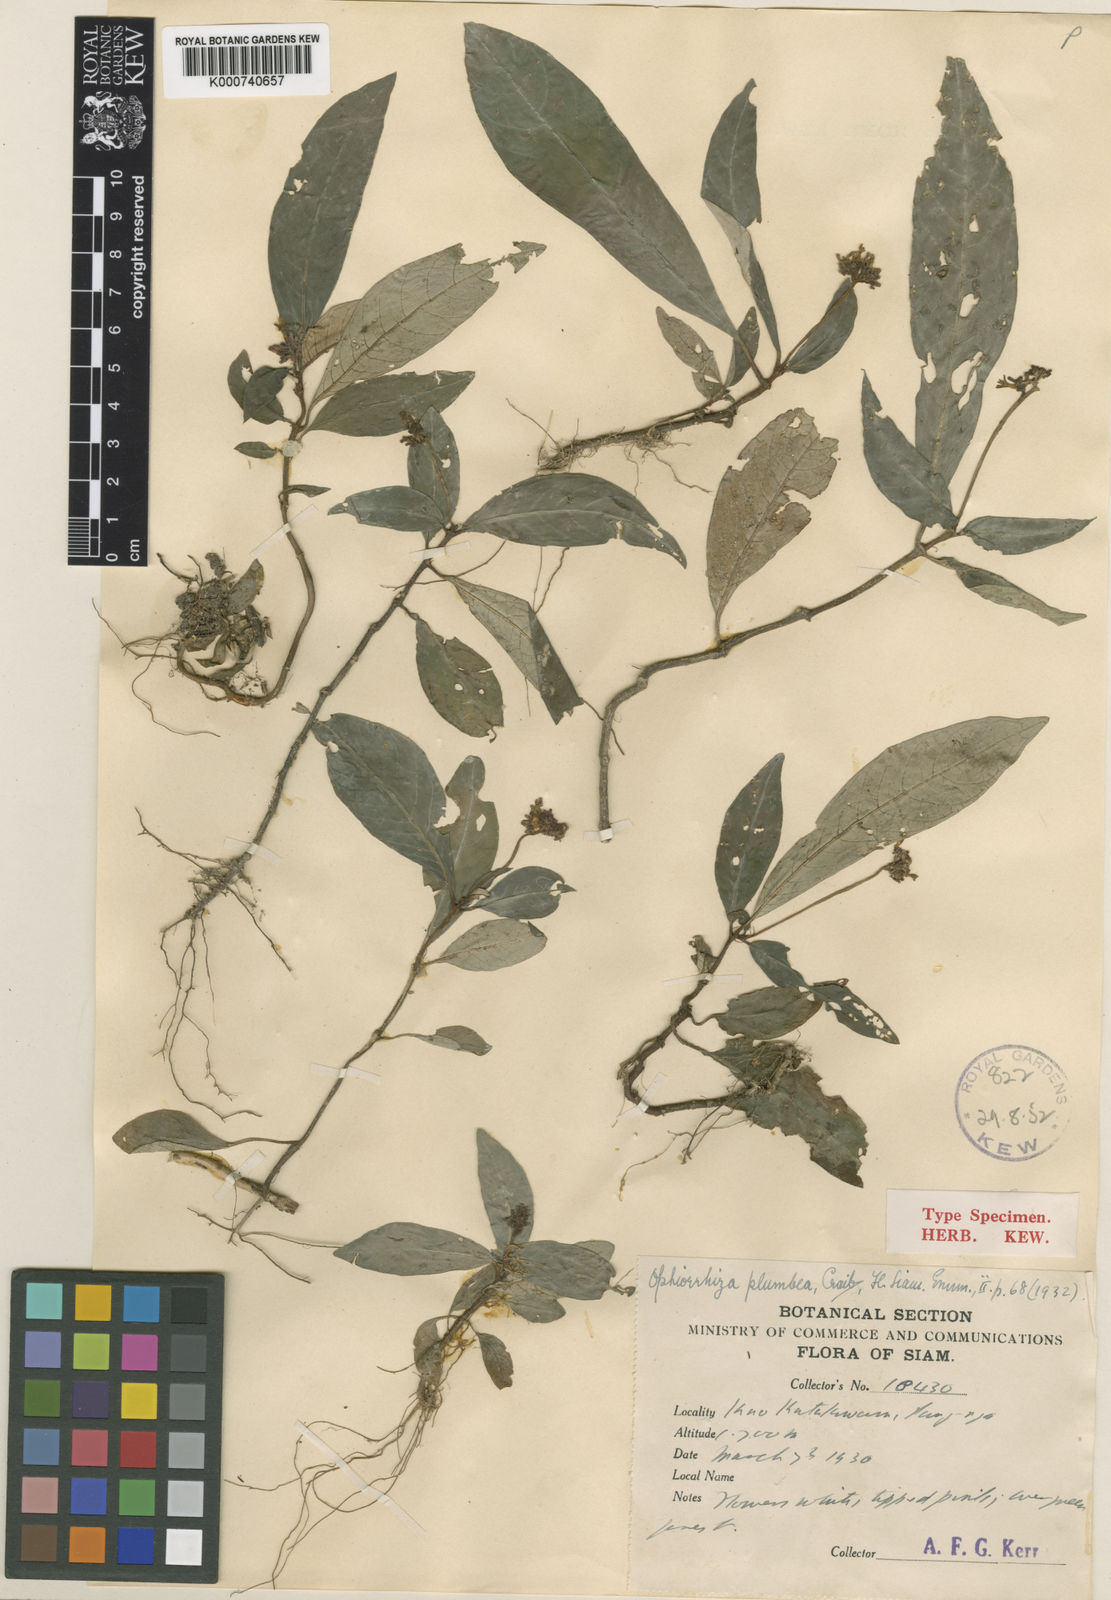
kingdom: Plantae
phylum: Tracheophyta
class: Magnoliopsida
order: Gentianales
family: Rubiaceae
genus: Ophiorrhiza
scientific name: Ophiorrhiza oblonga
